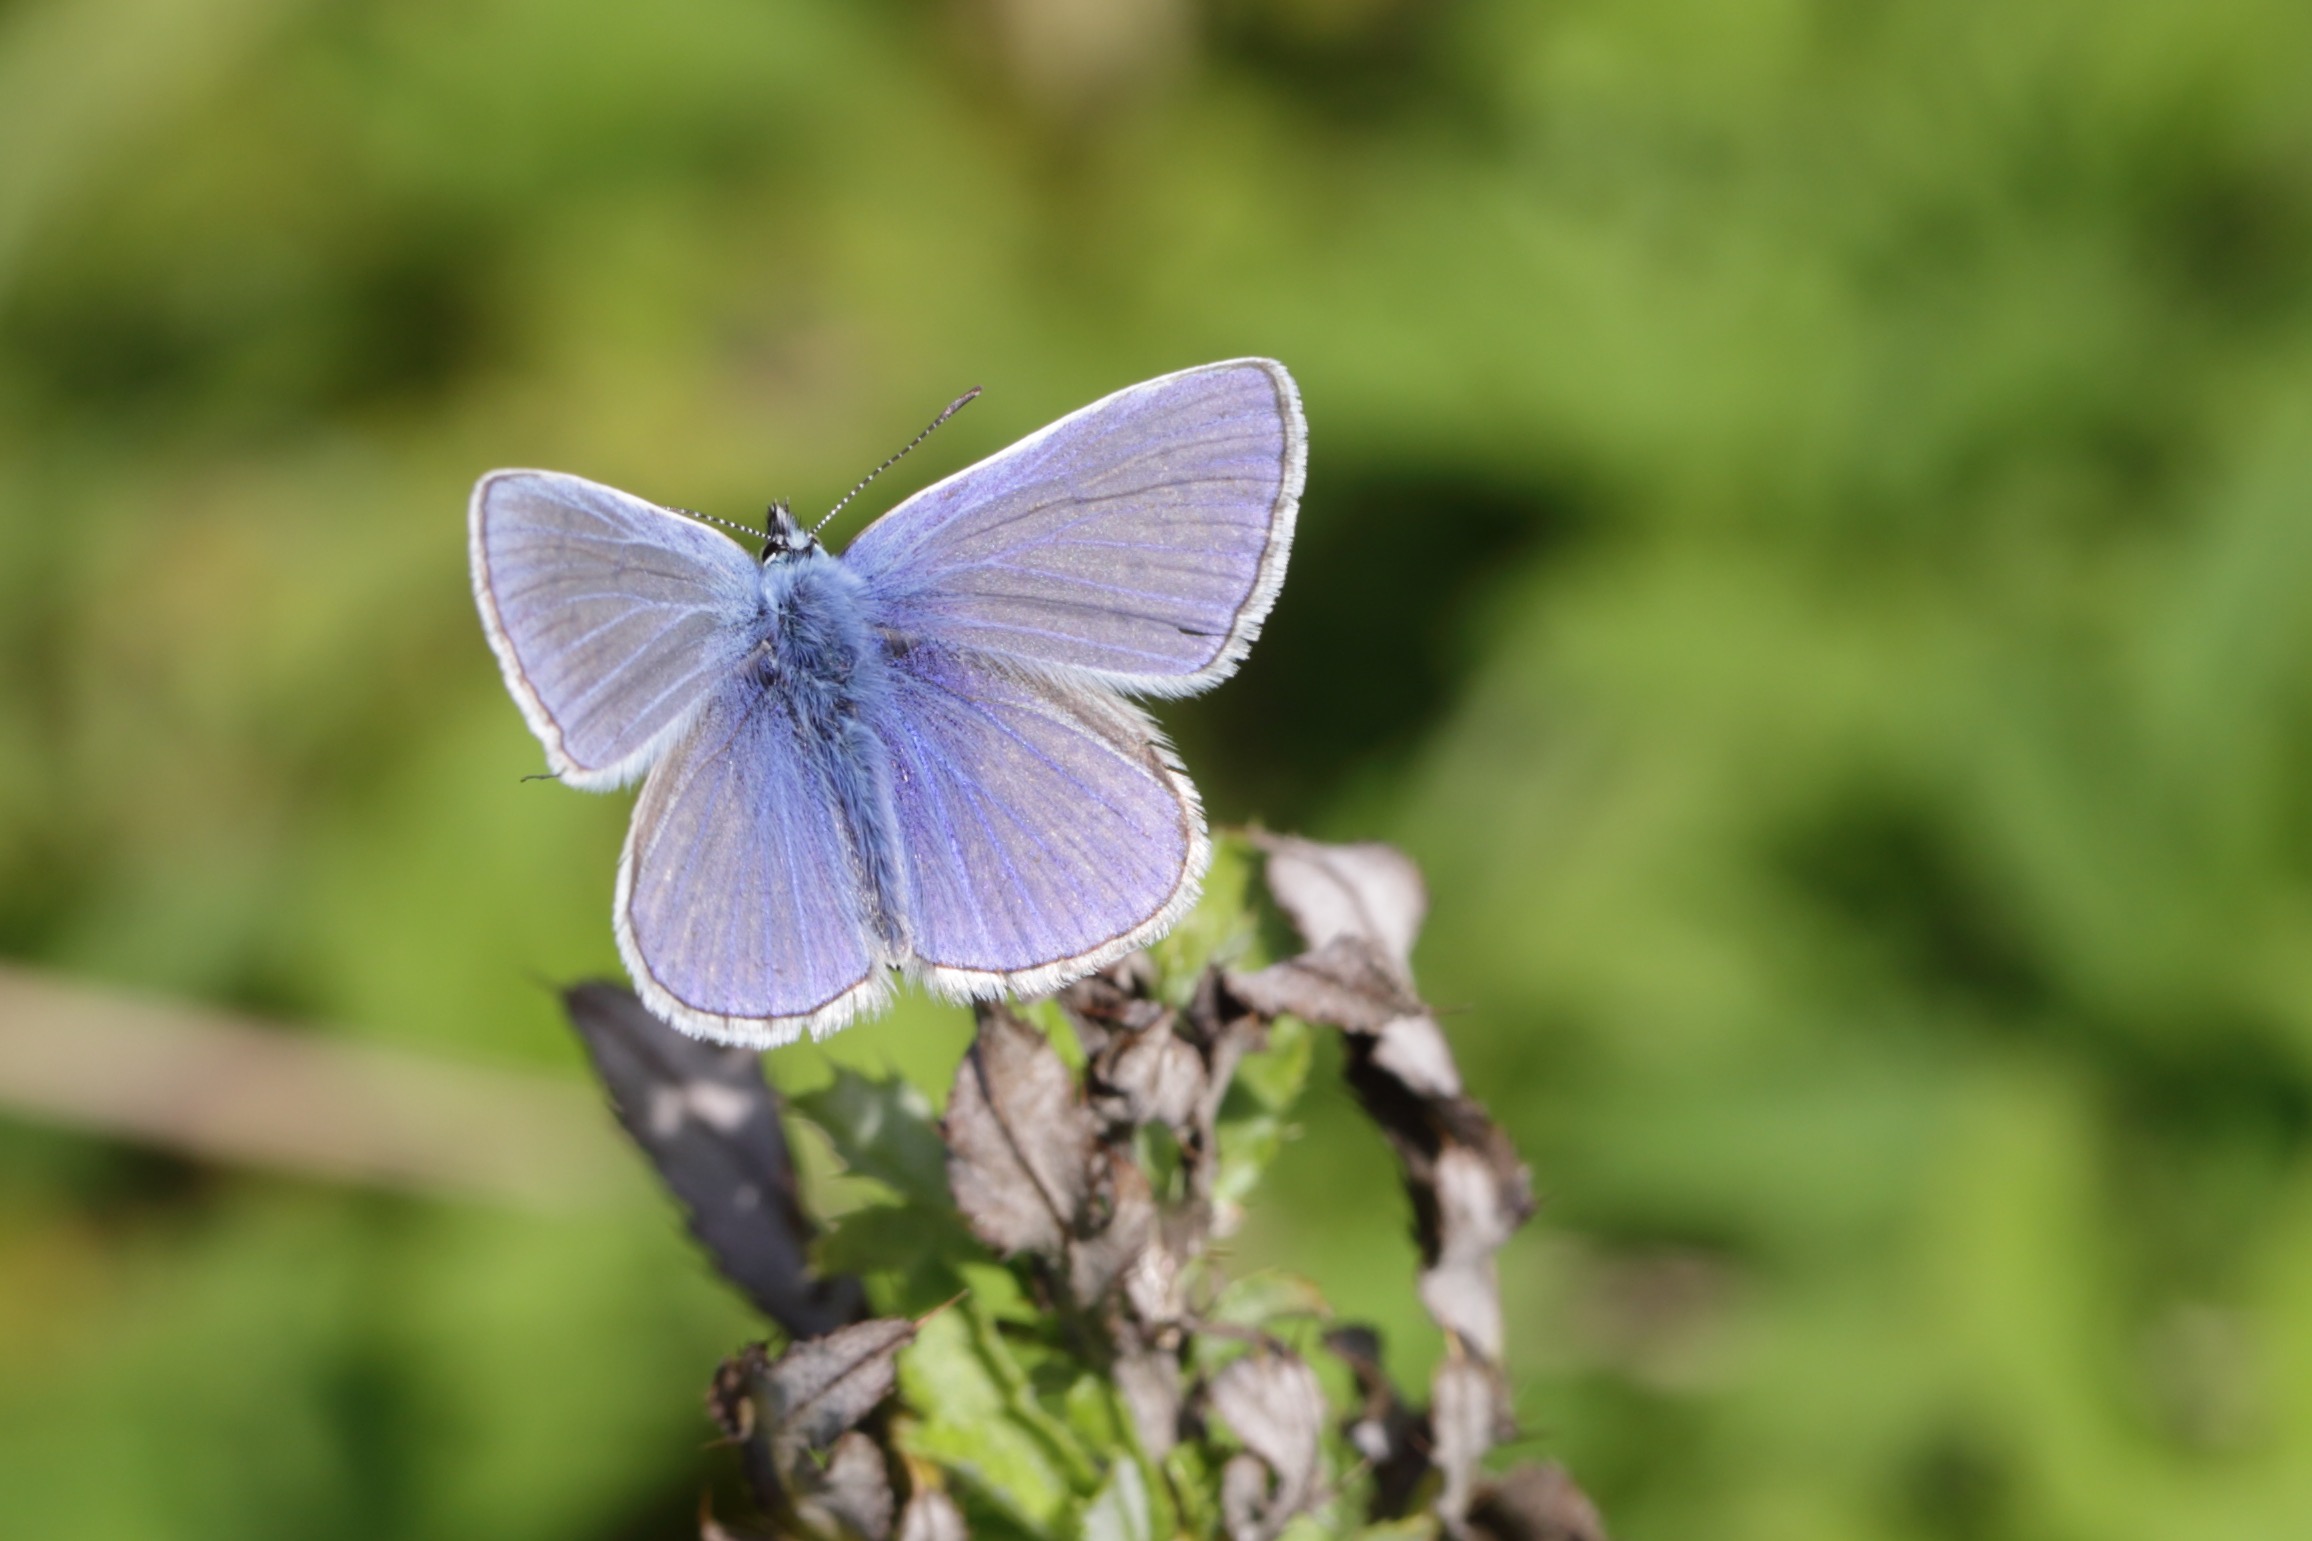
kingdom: Animalia
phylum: Arthropoda
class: Insecta
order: Lepidoptera
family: Lycaenidae
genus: Polyommatus
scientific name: Polyommatus icarus
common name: Almindelig blåfugl
